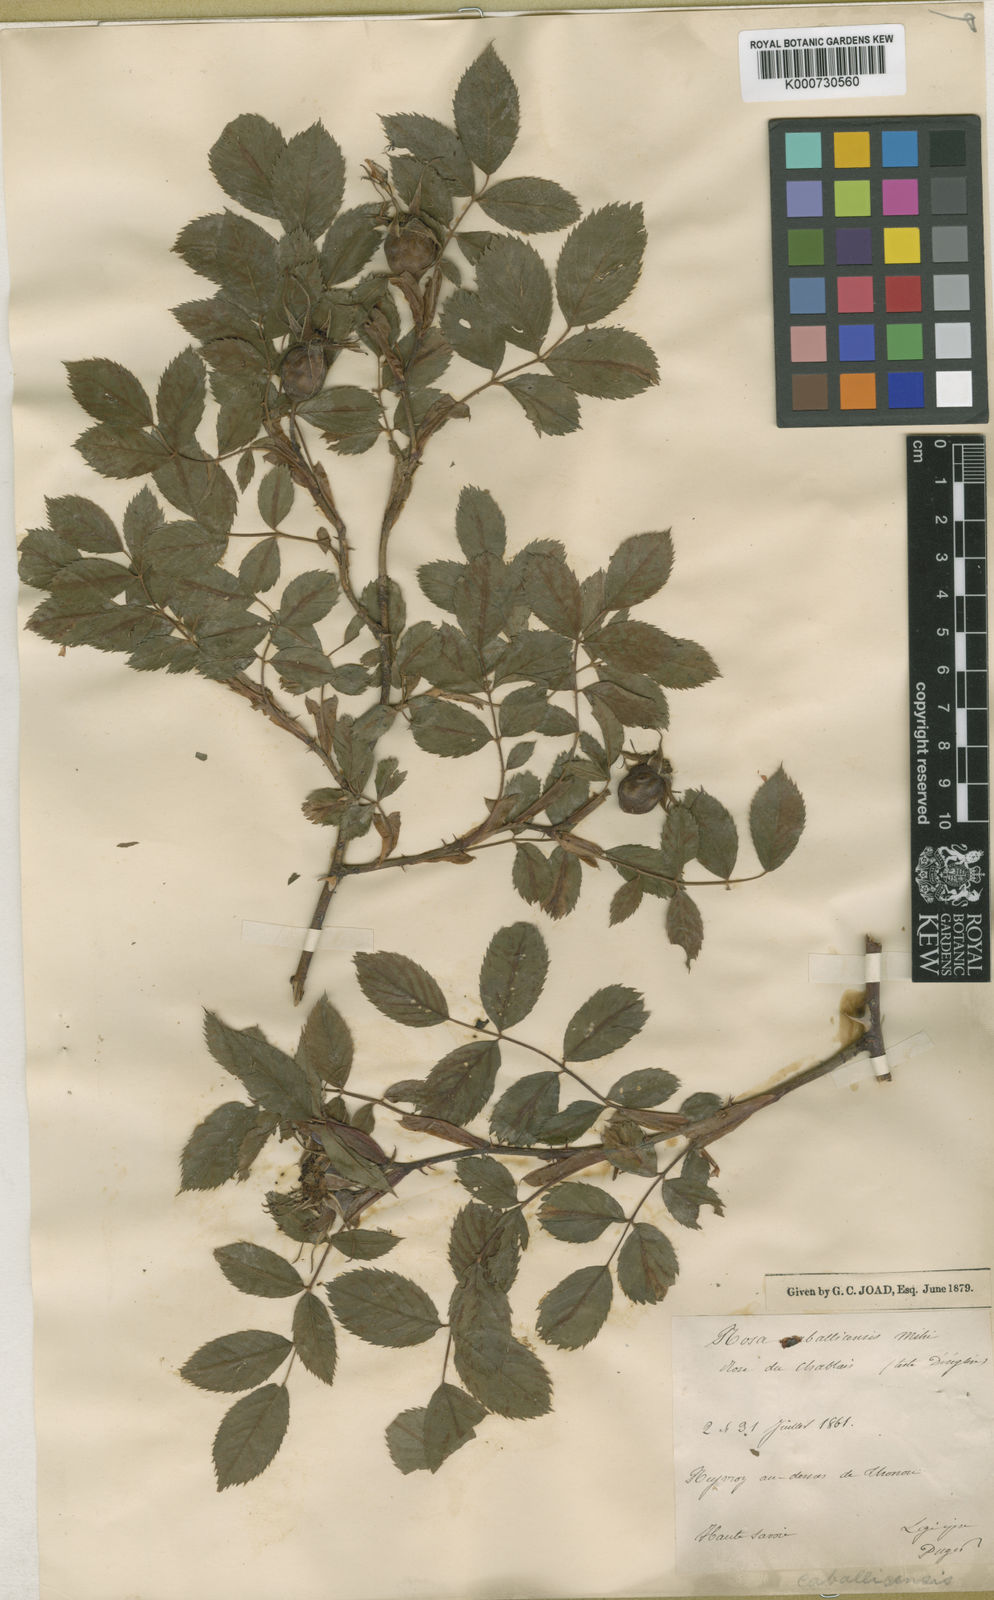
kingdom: Plantae
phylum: Tracheophyta
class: Magnoliopsida
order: Rosales
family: Rosaceae
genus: Rosa
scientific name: Rosa dumalis
